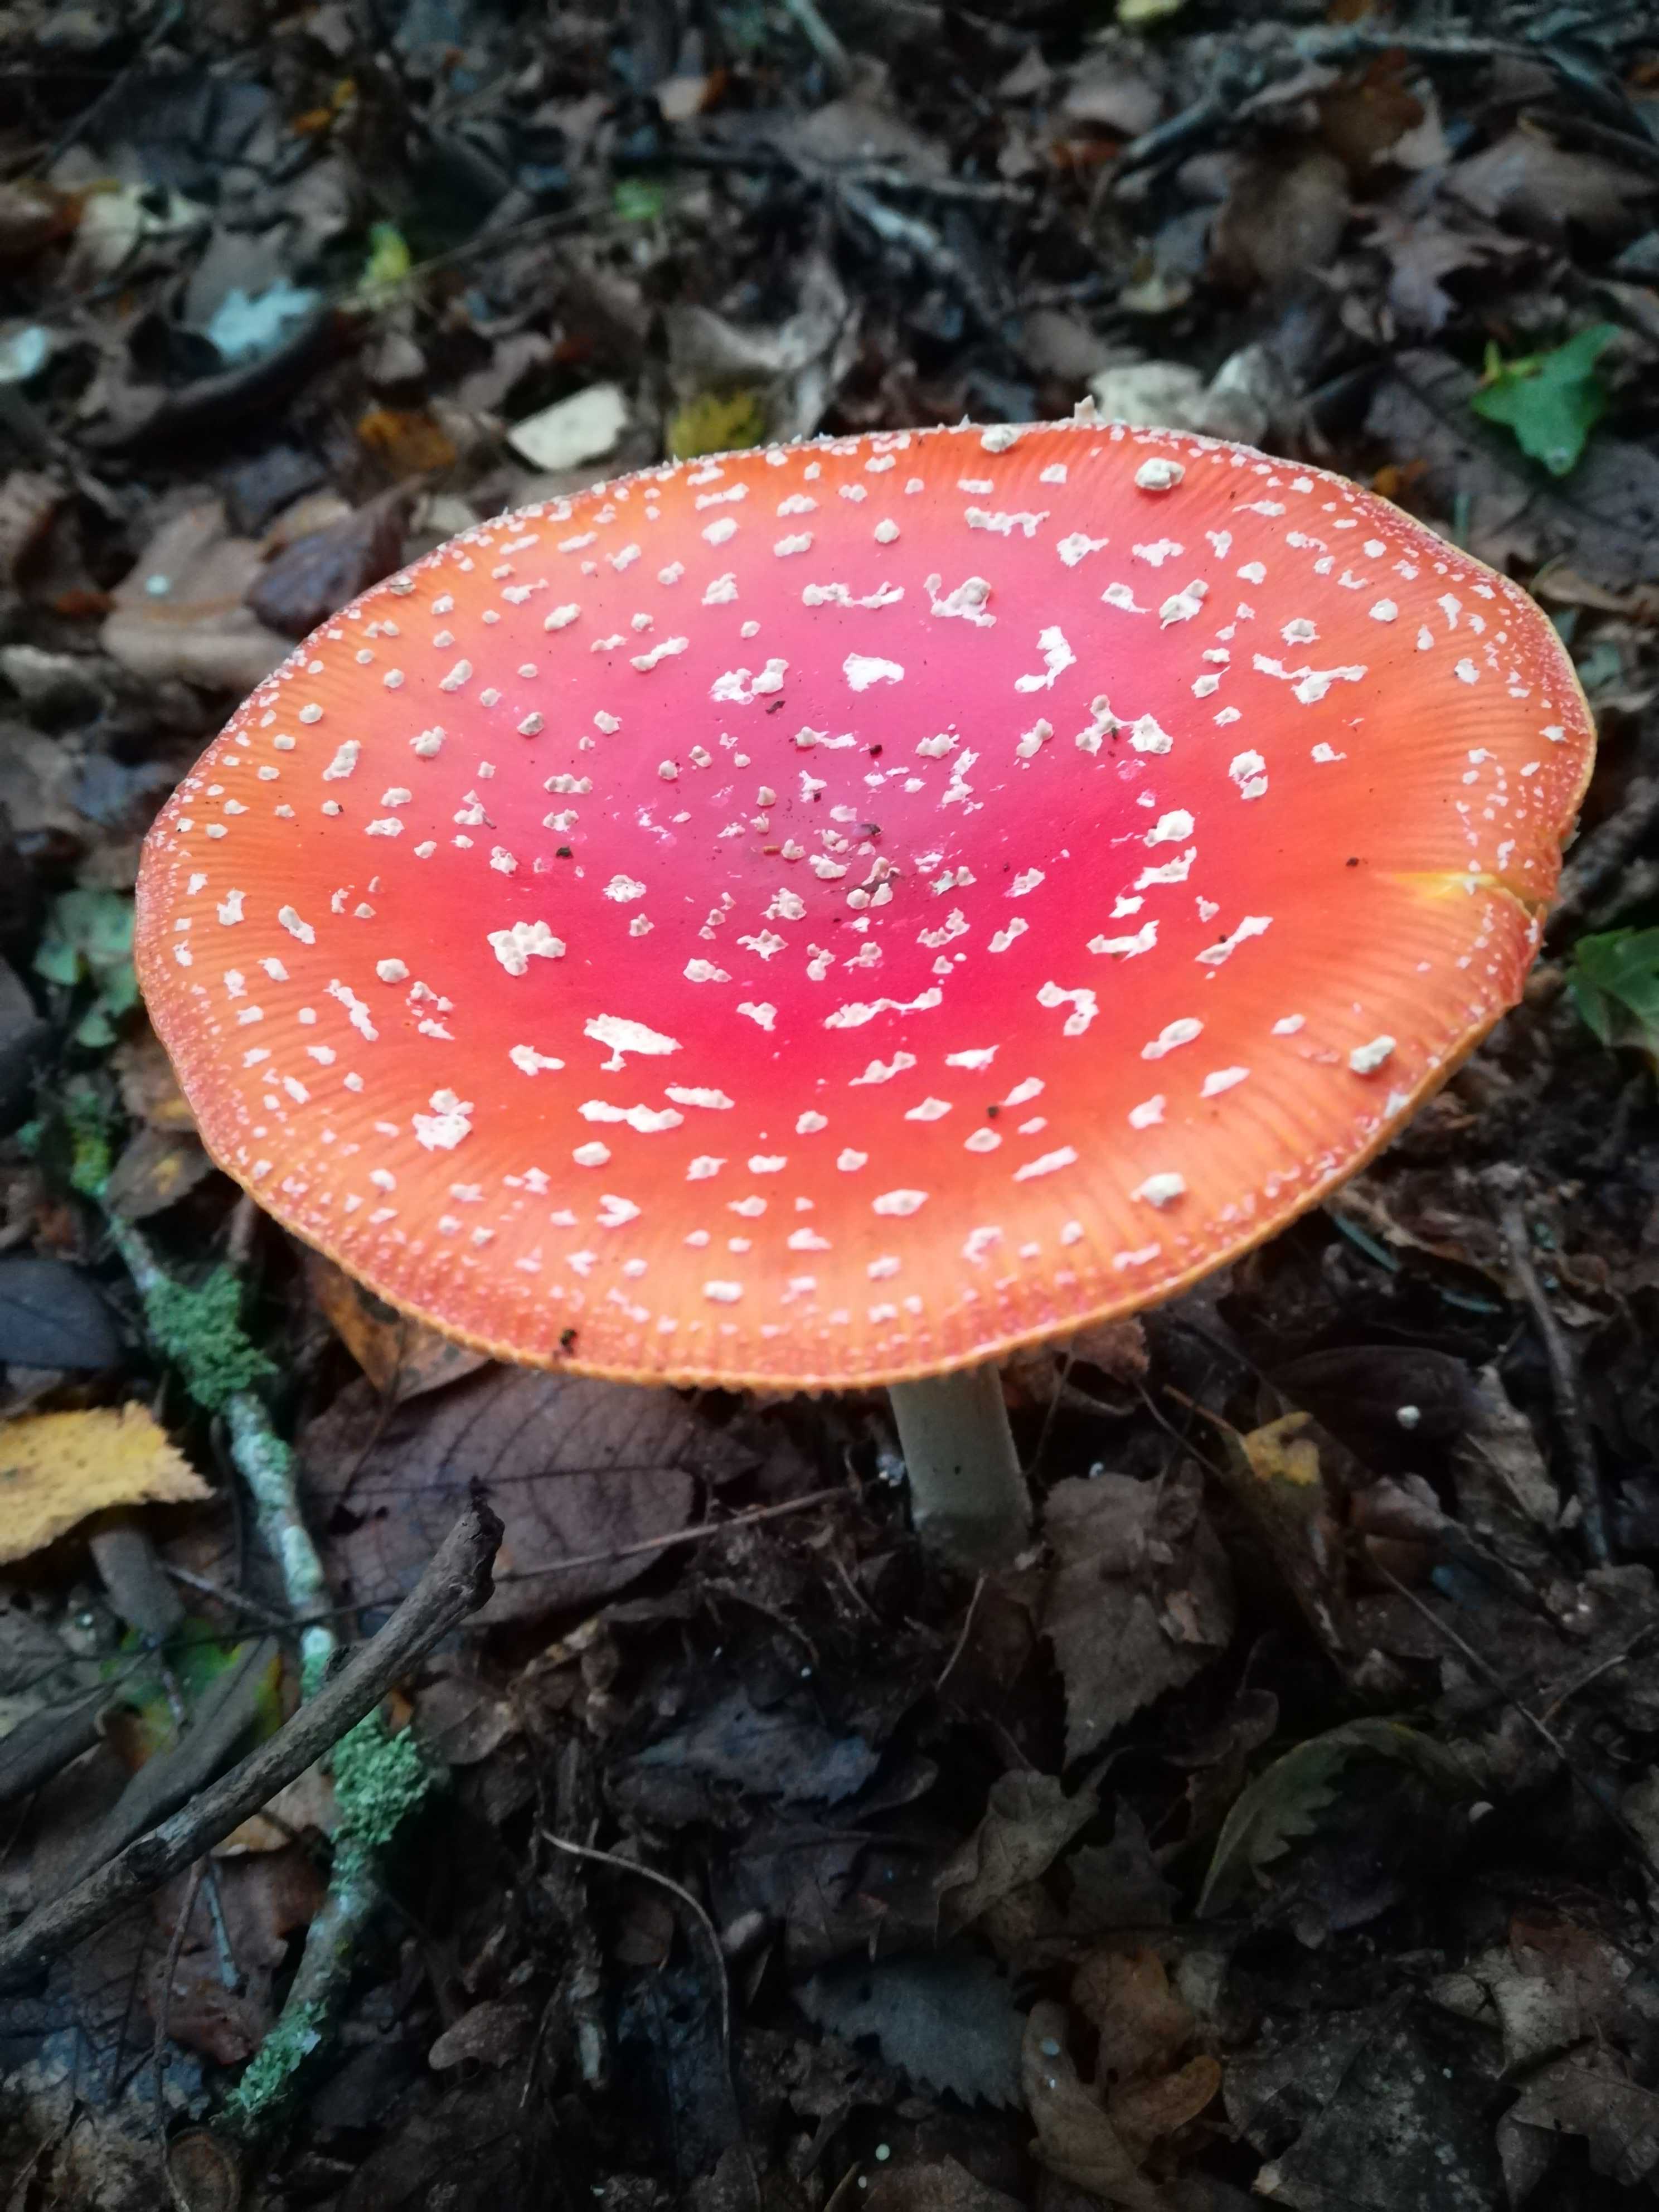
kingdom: Fungi
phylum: Basidiomycota
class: Agaricomycetes
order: Agaricales
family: Amanitaceae
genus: Amanita
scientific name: Amanita muscaria
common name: rød fluesvamp
